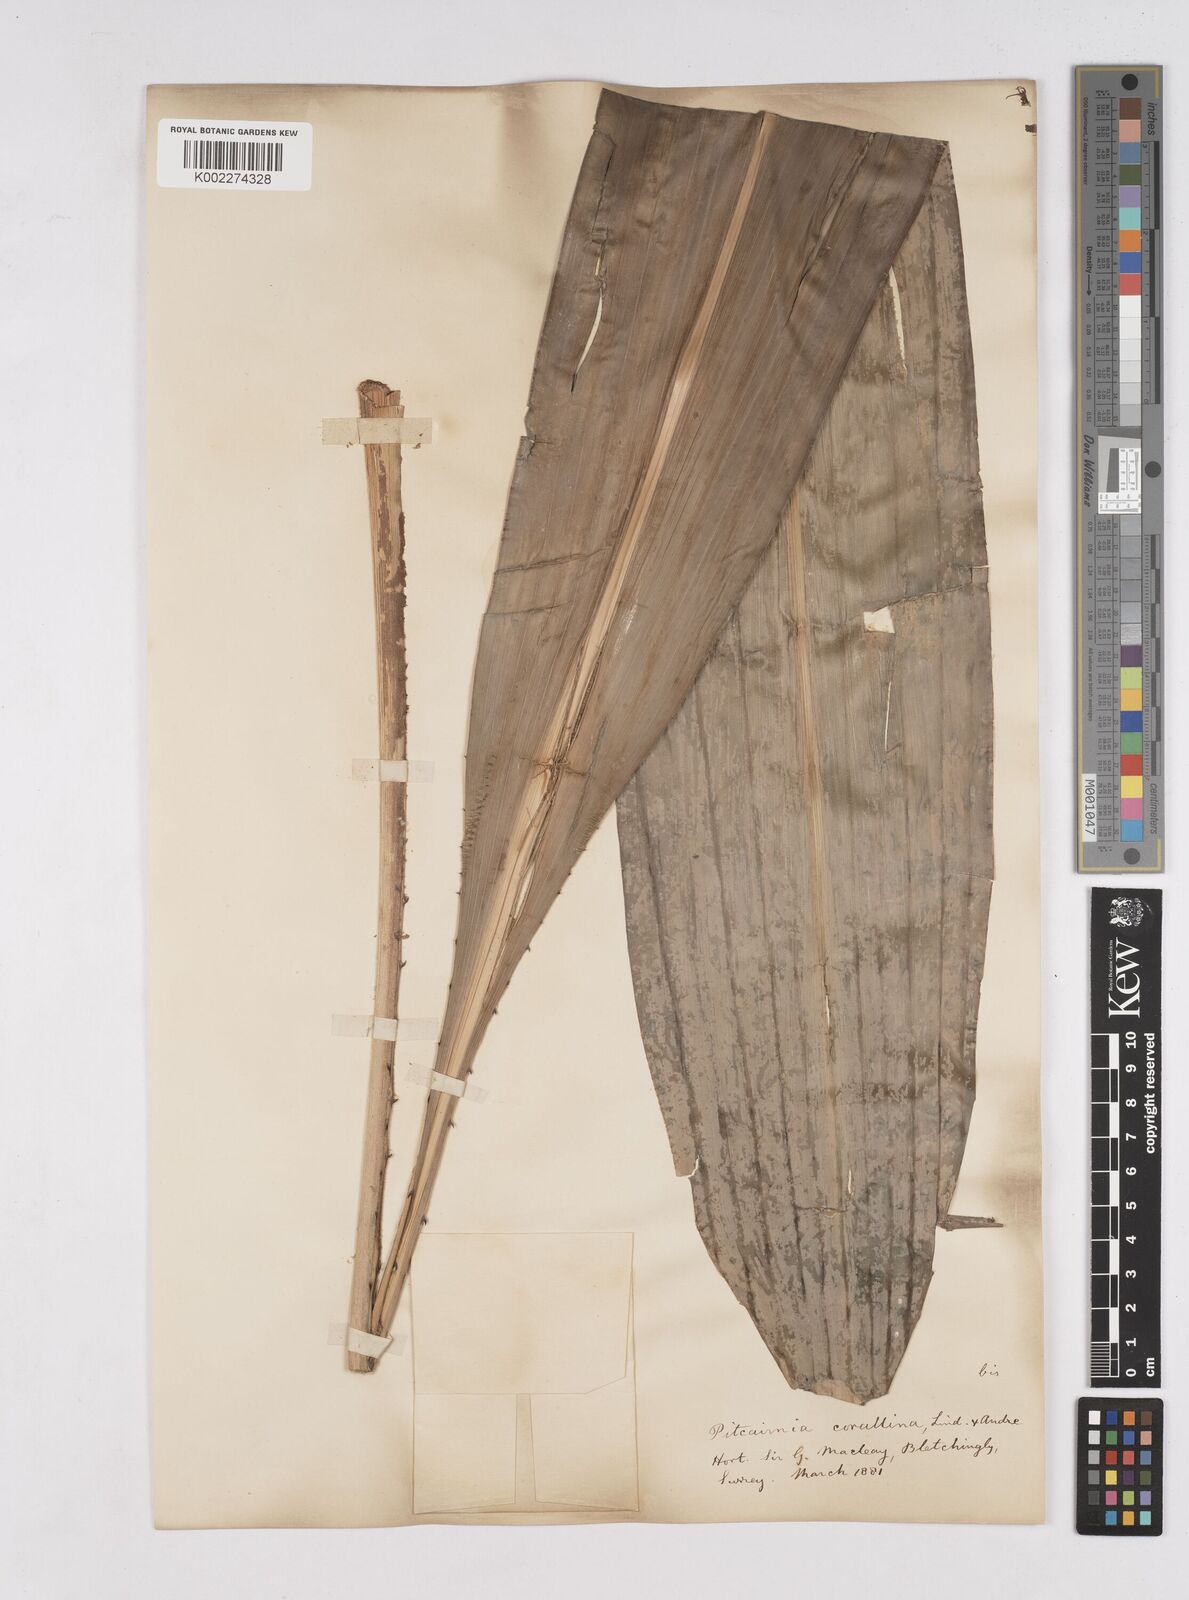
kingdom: Plantae
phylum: Tracheophyta
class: Liliopsida
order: Poales
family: Bromeliaceae
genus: Pitcairnia
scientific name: Pitcairnia corallina
